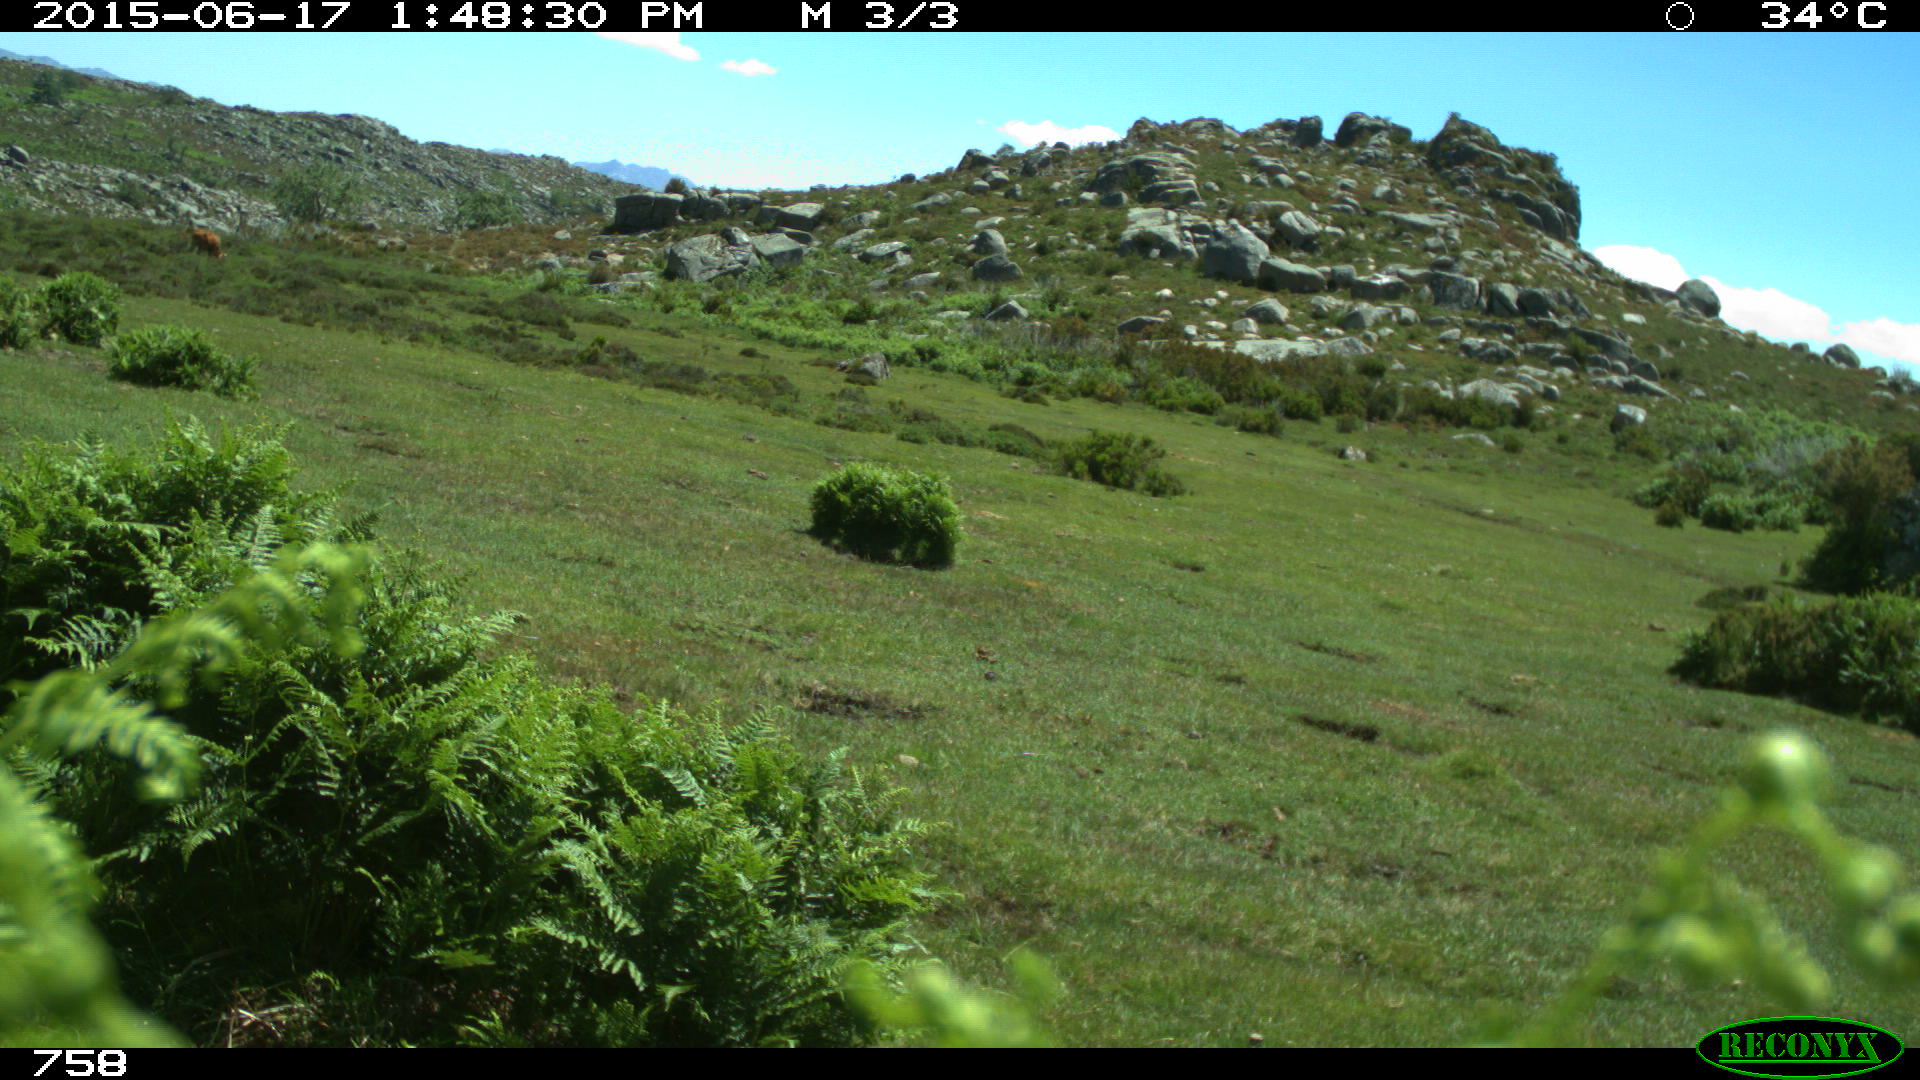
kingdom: Animalia
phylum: Chordata
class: Mammalia
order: Artiodactyla
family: Bovidae
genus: Bos
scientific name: Bos taurus
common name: Domesticated cattle
